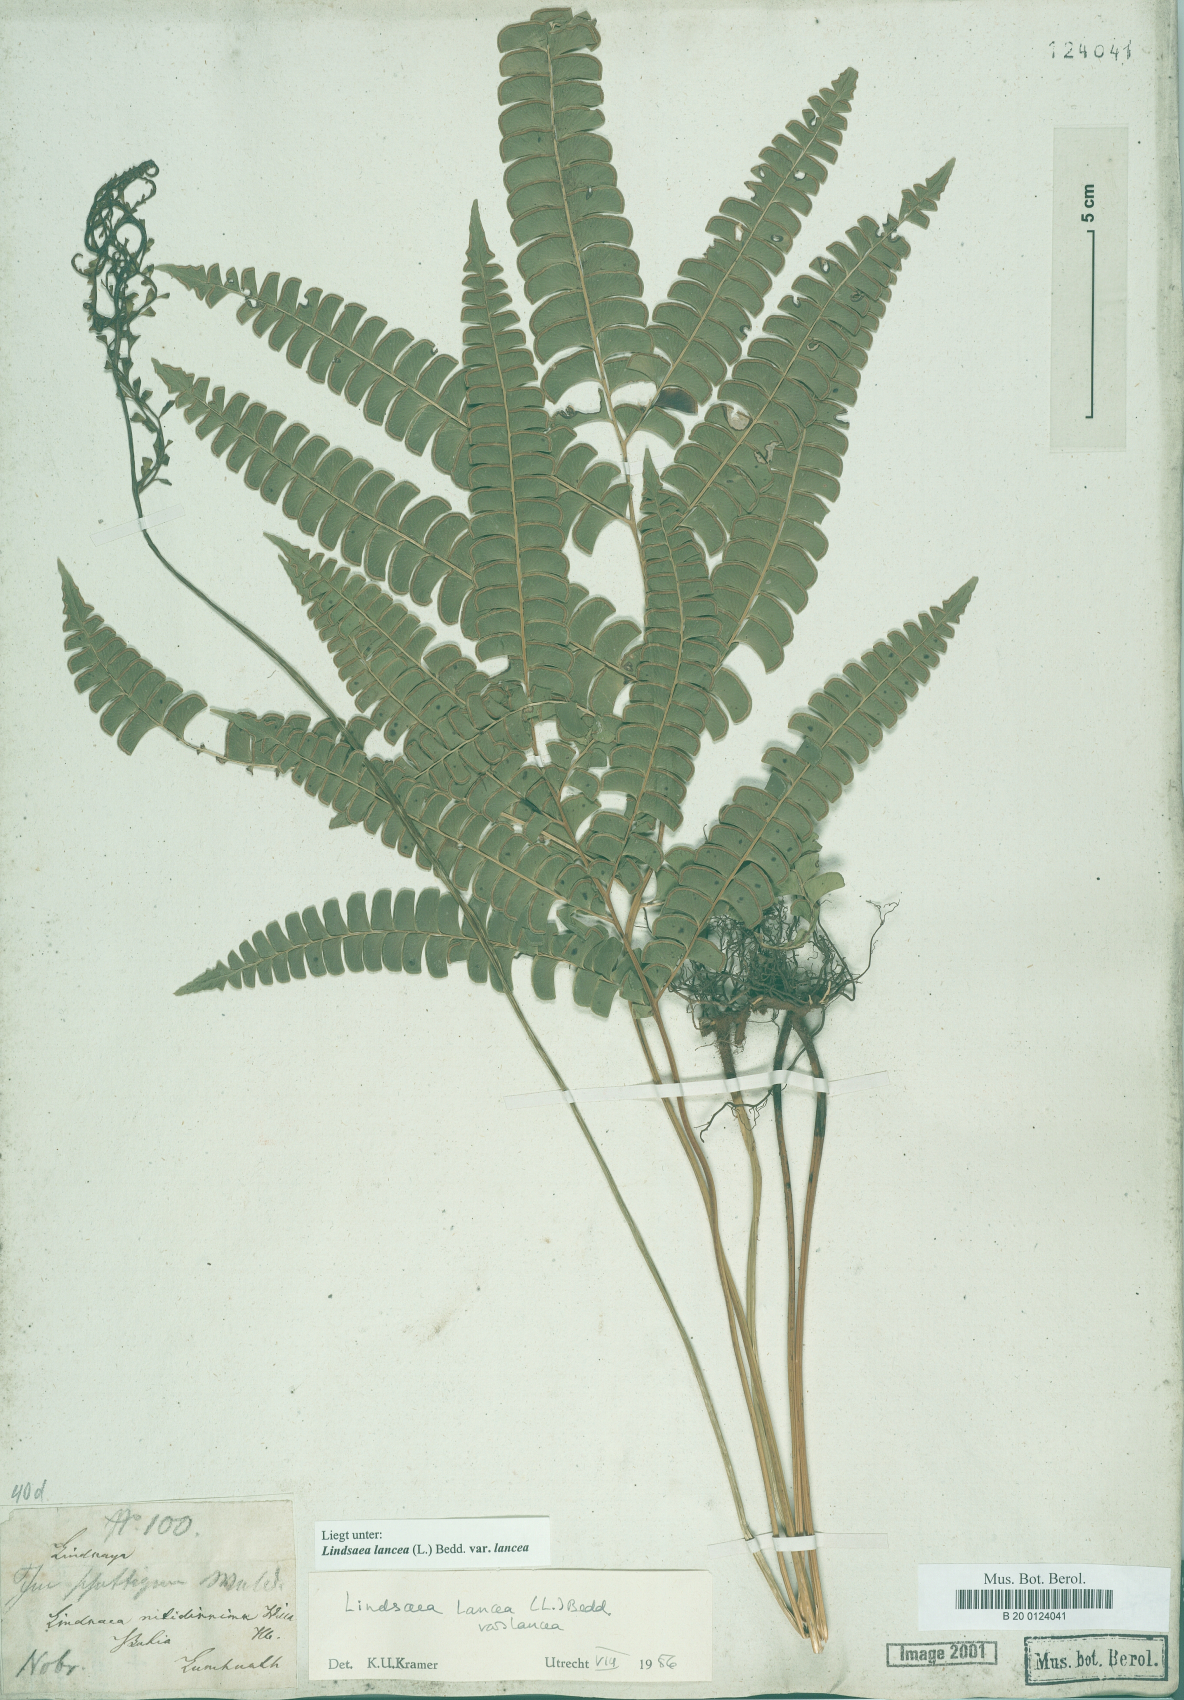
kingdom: Plantae
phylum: Tracheophyta
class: Polypodiopsida
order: Polypodiales
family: Lindsaeaceae
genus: Lindsaea
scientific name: Lindsaea lancea
